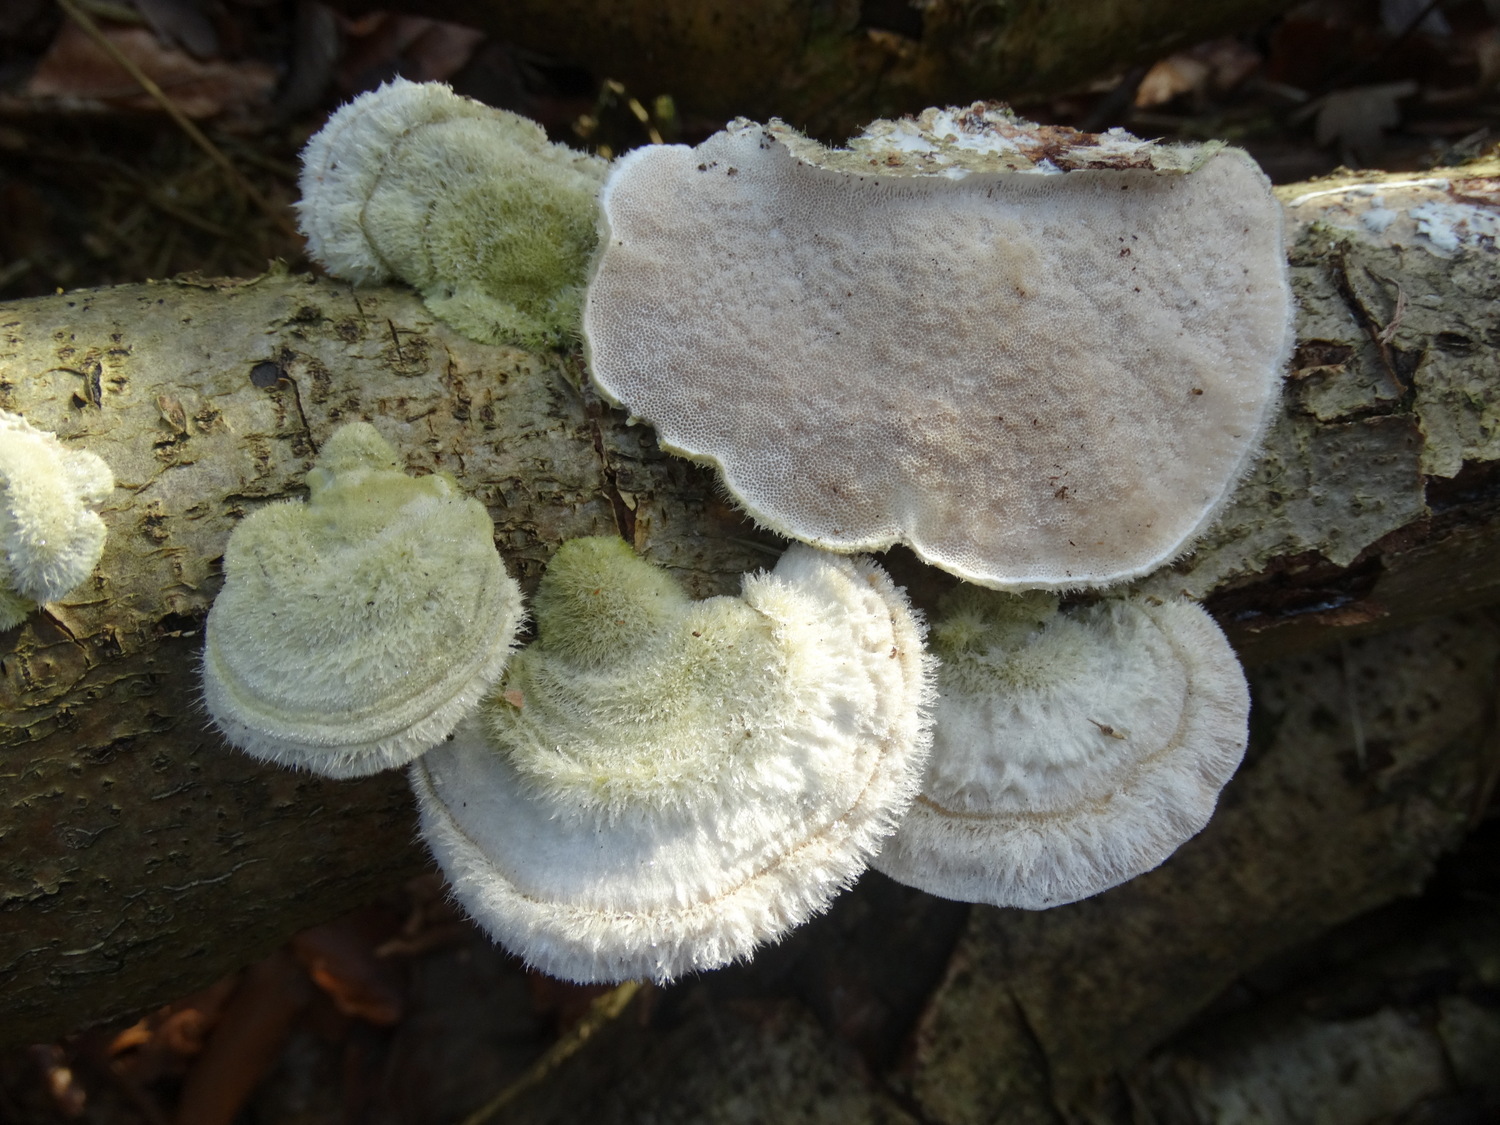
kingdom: Fungi
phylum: Basidiomycota
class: Agaricomycetes
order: Polyporales
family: Polyporaceae
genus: Trametes
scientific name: Trametes hirsuta
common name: håret læderporesvamp
